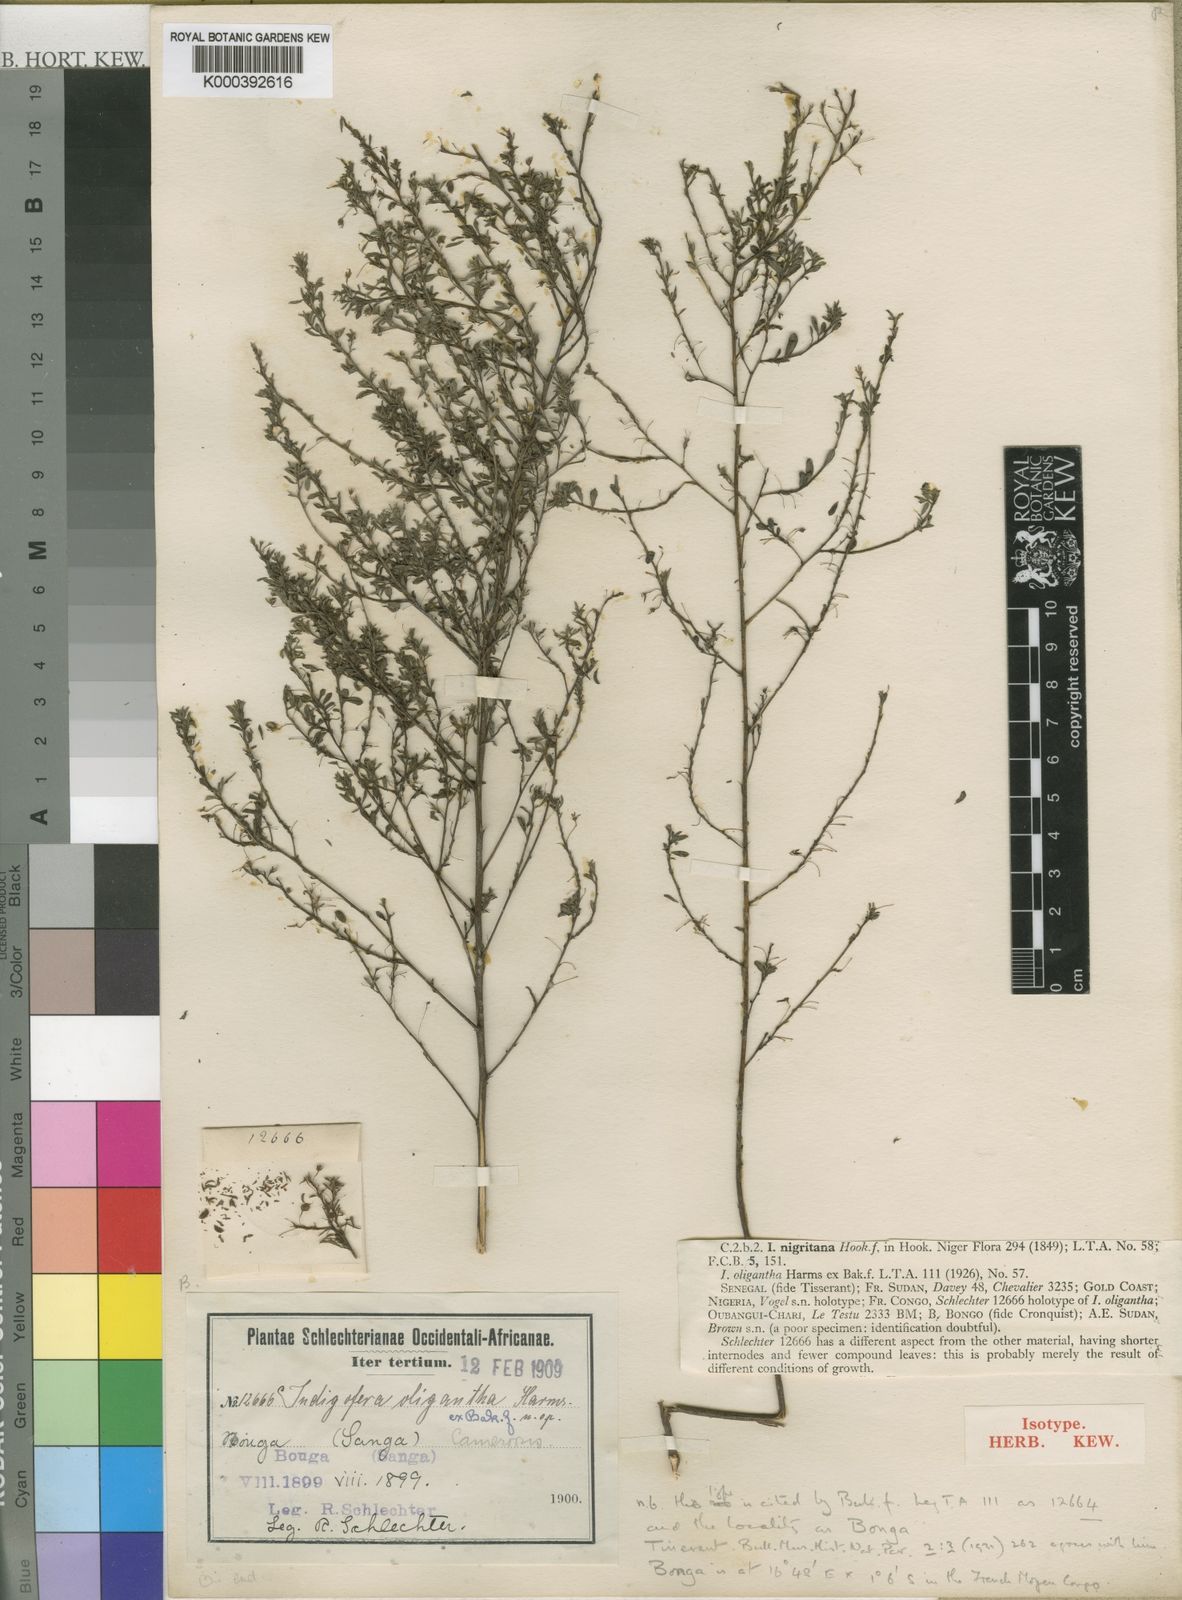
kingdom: Plantae
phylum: Tracheophyta
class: Magnoliopsida
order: Fabales
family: Fabaceae
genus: Indigofera
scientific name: Indigofera nigritana
